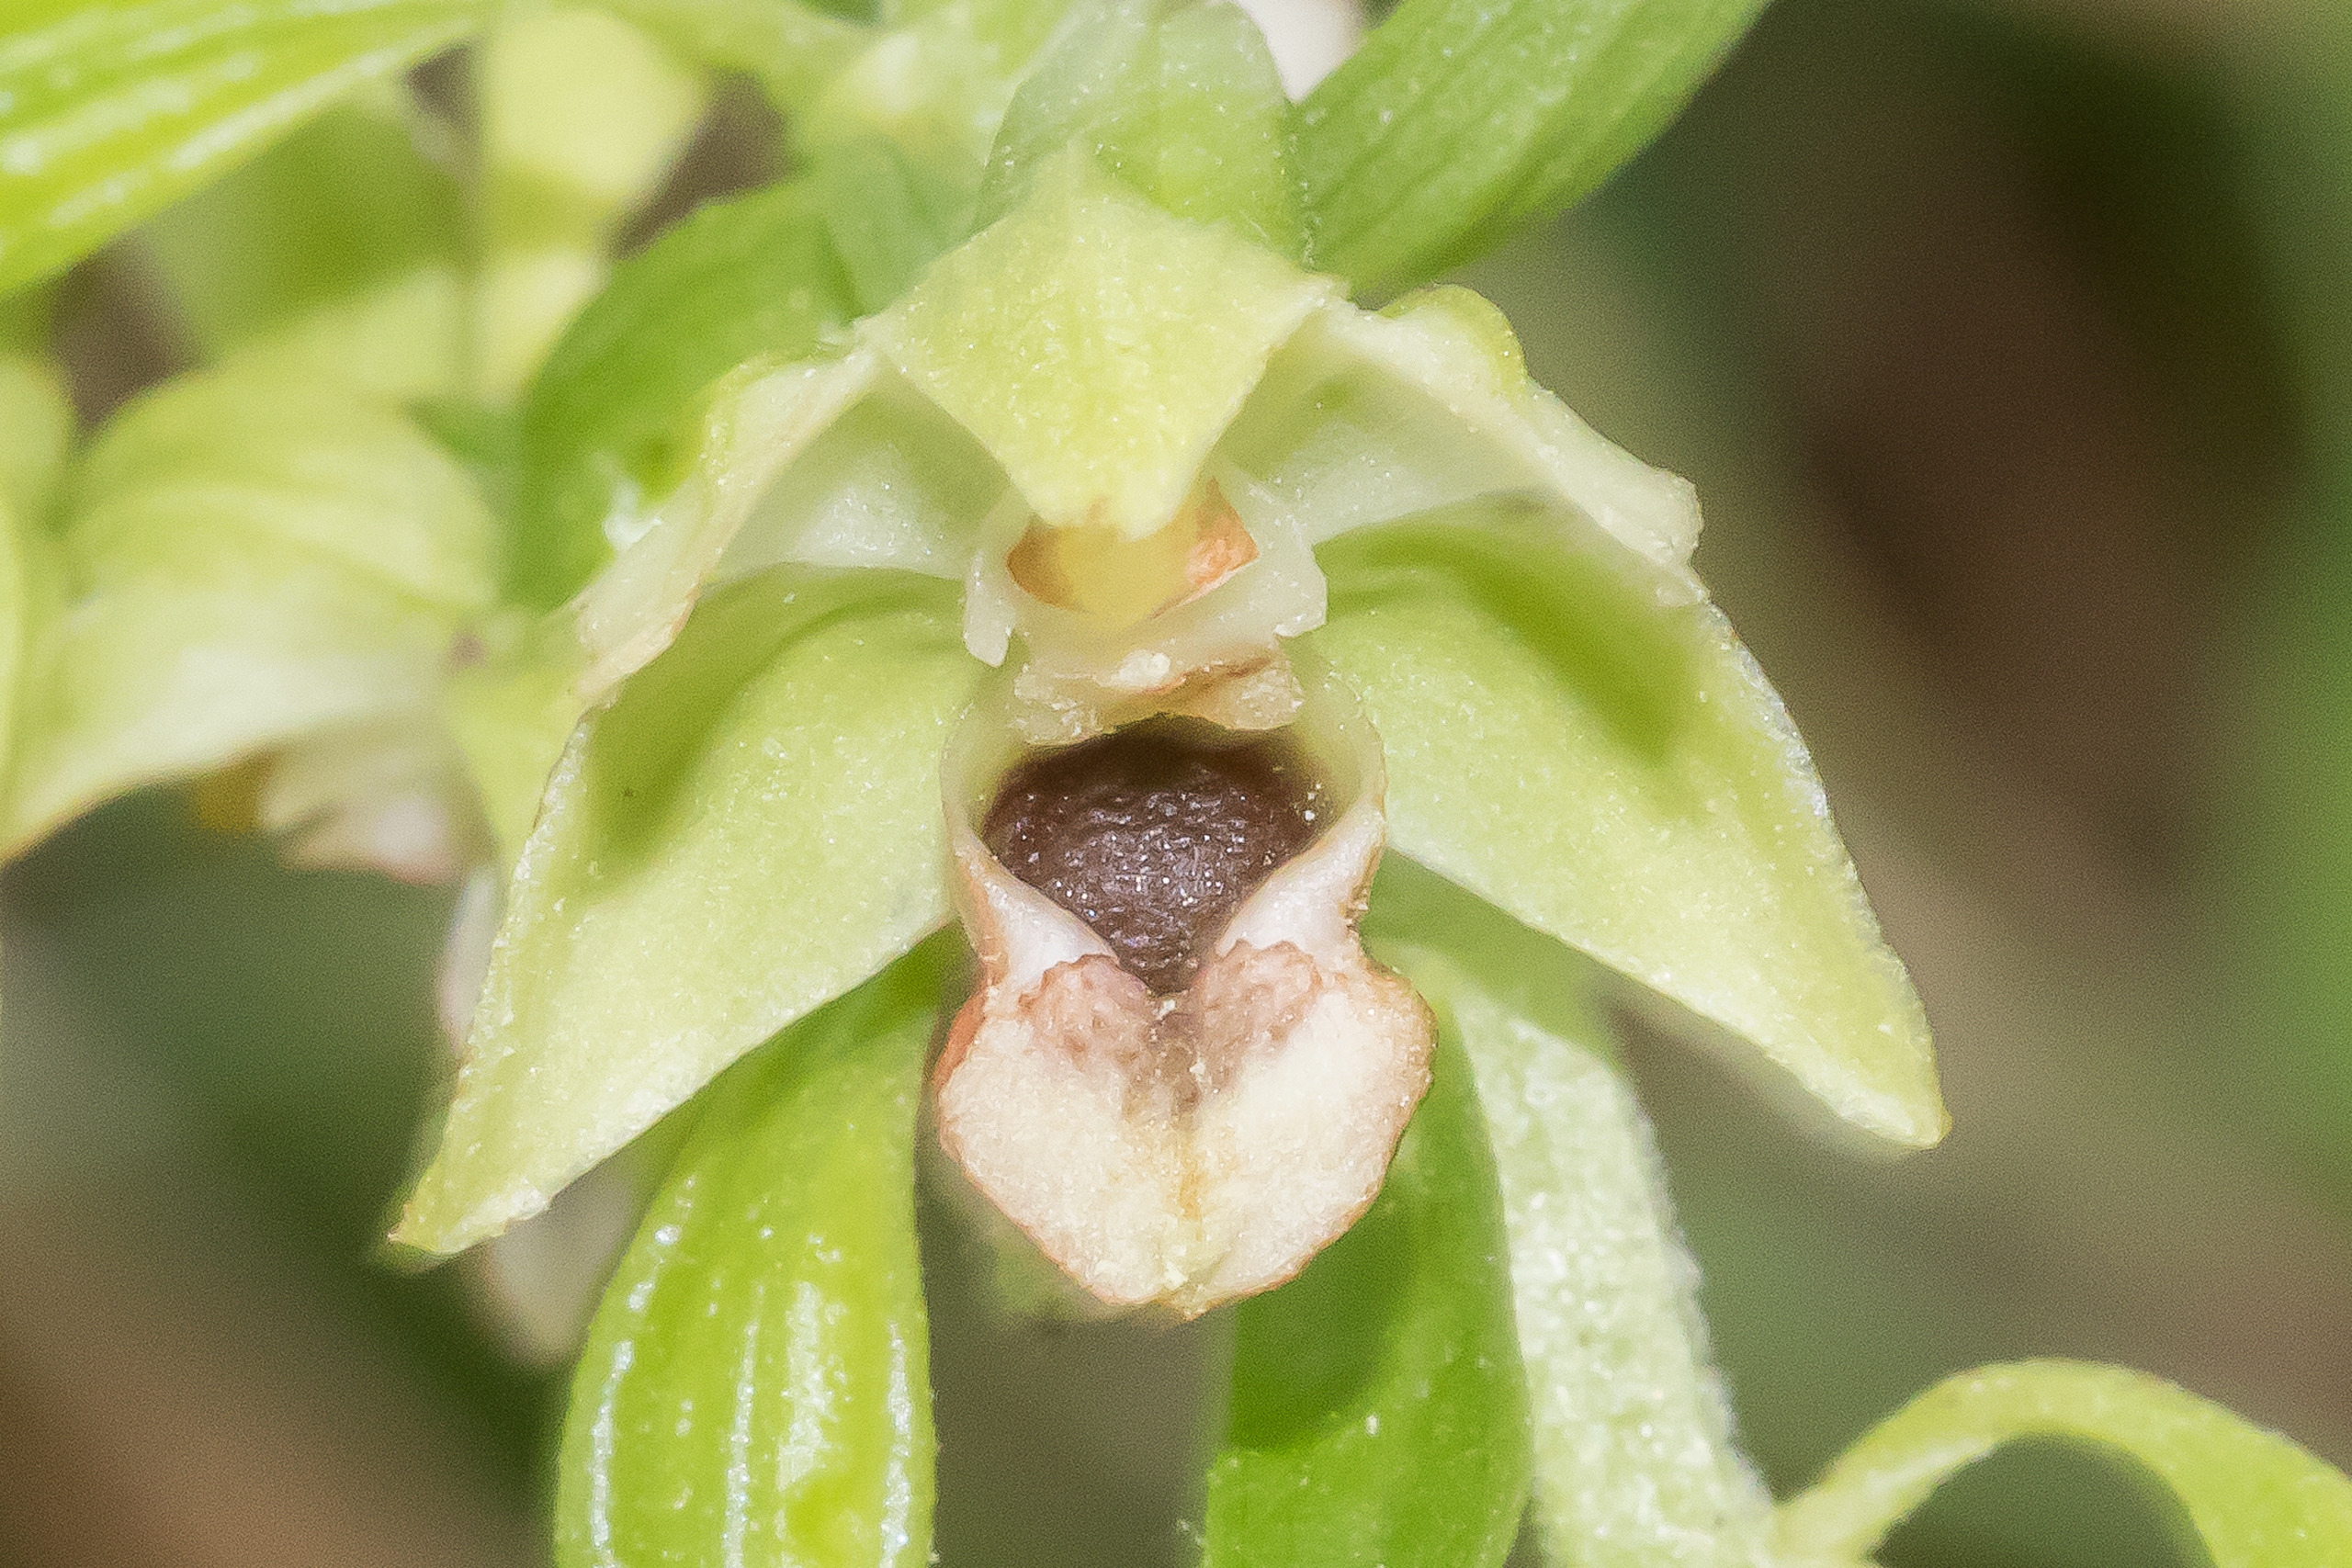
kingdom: Plantae
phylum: Tracheophyta
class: Liliopsida
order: Asparagales
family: Orchidaceae
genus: Epipactis
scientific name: Epipactis helleborine
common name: Skov-hullæbe
